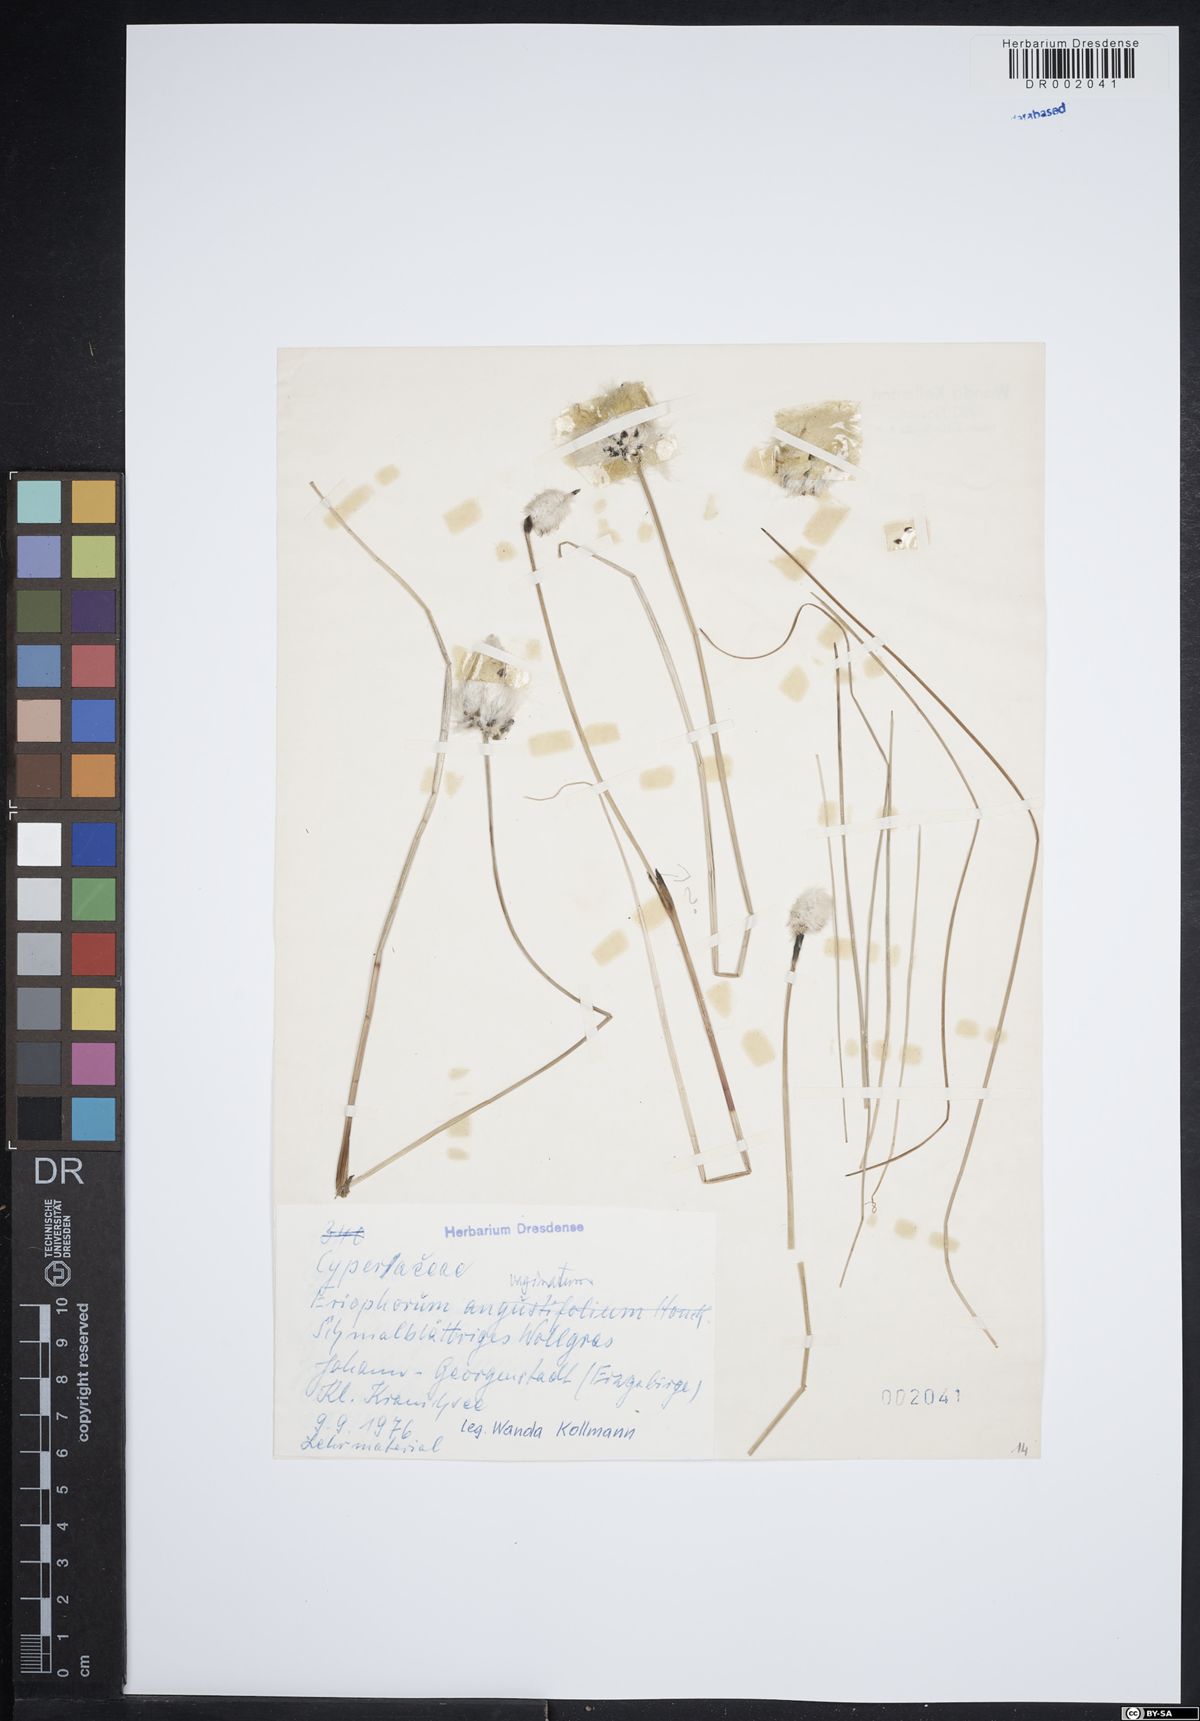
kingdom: Plantae
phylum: Tracheophyta
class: Liliopsida
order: Poales
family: Cyperaceae
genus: Eriophorum
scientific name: Eriophorum vaginatum
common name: Hare's-tail cottongrass
